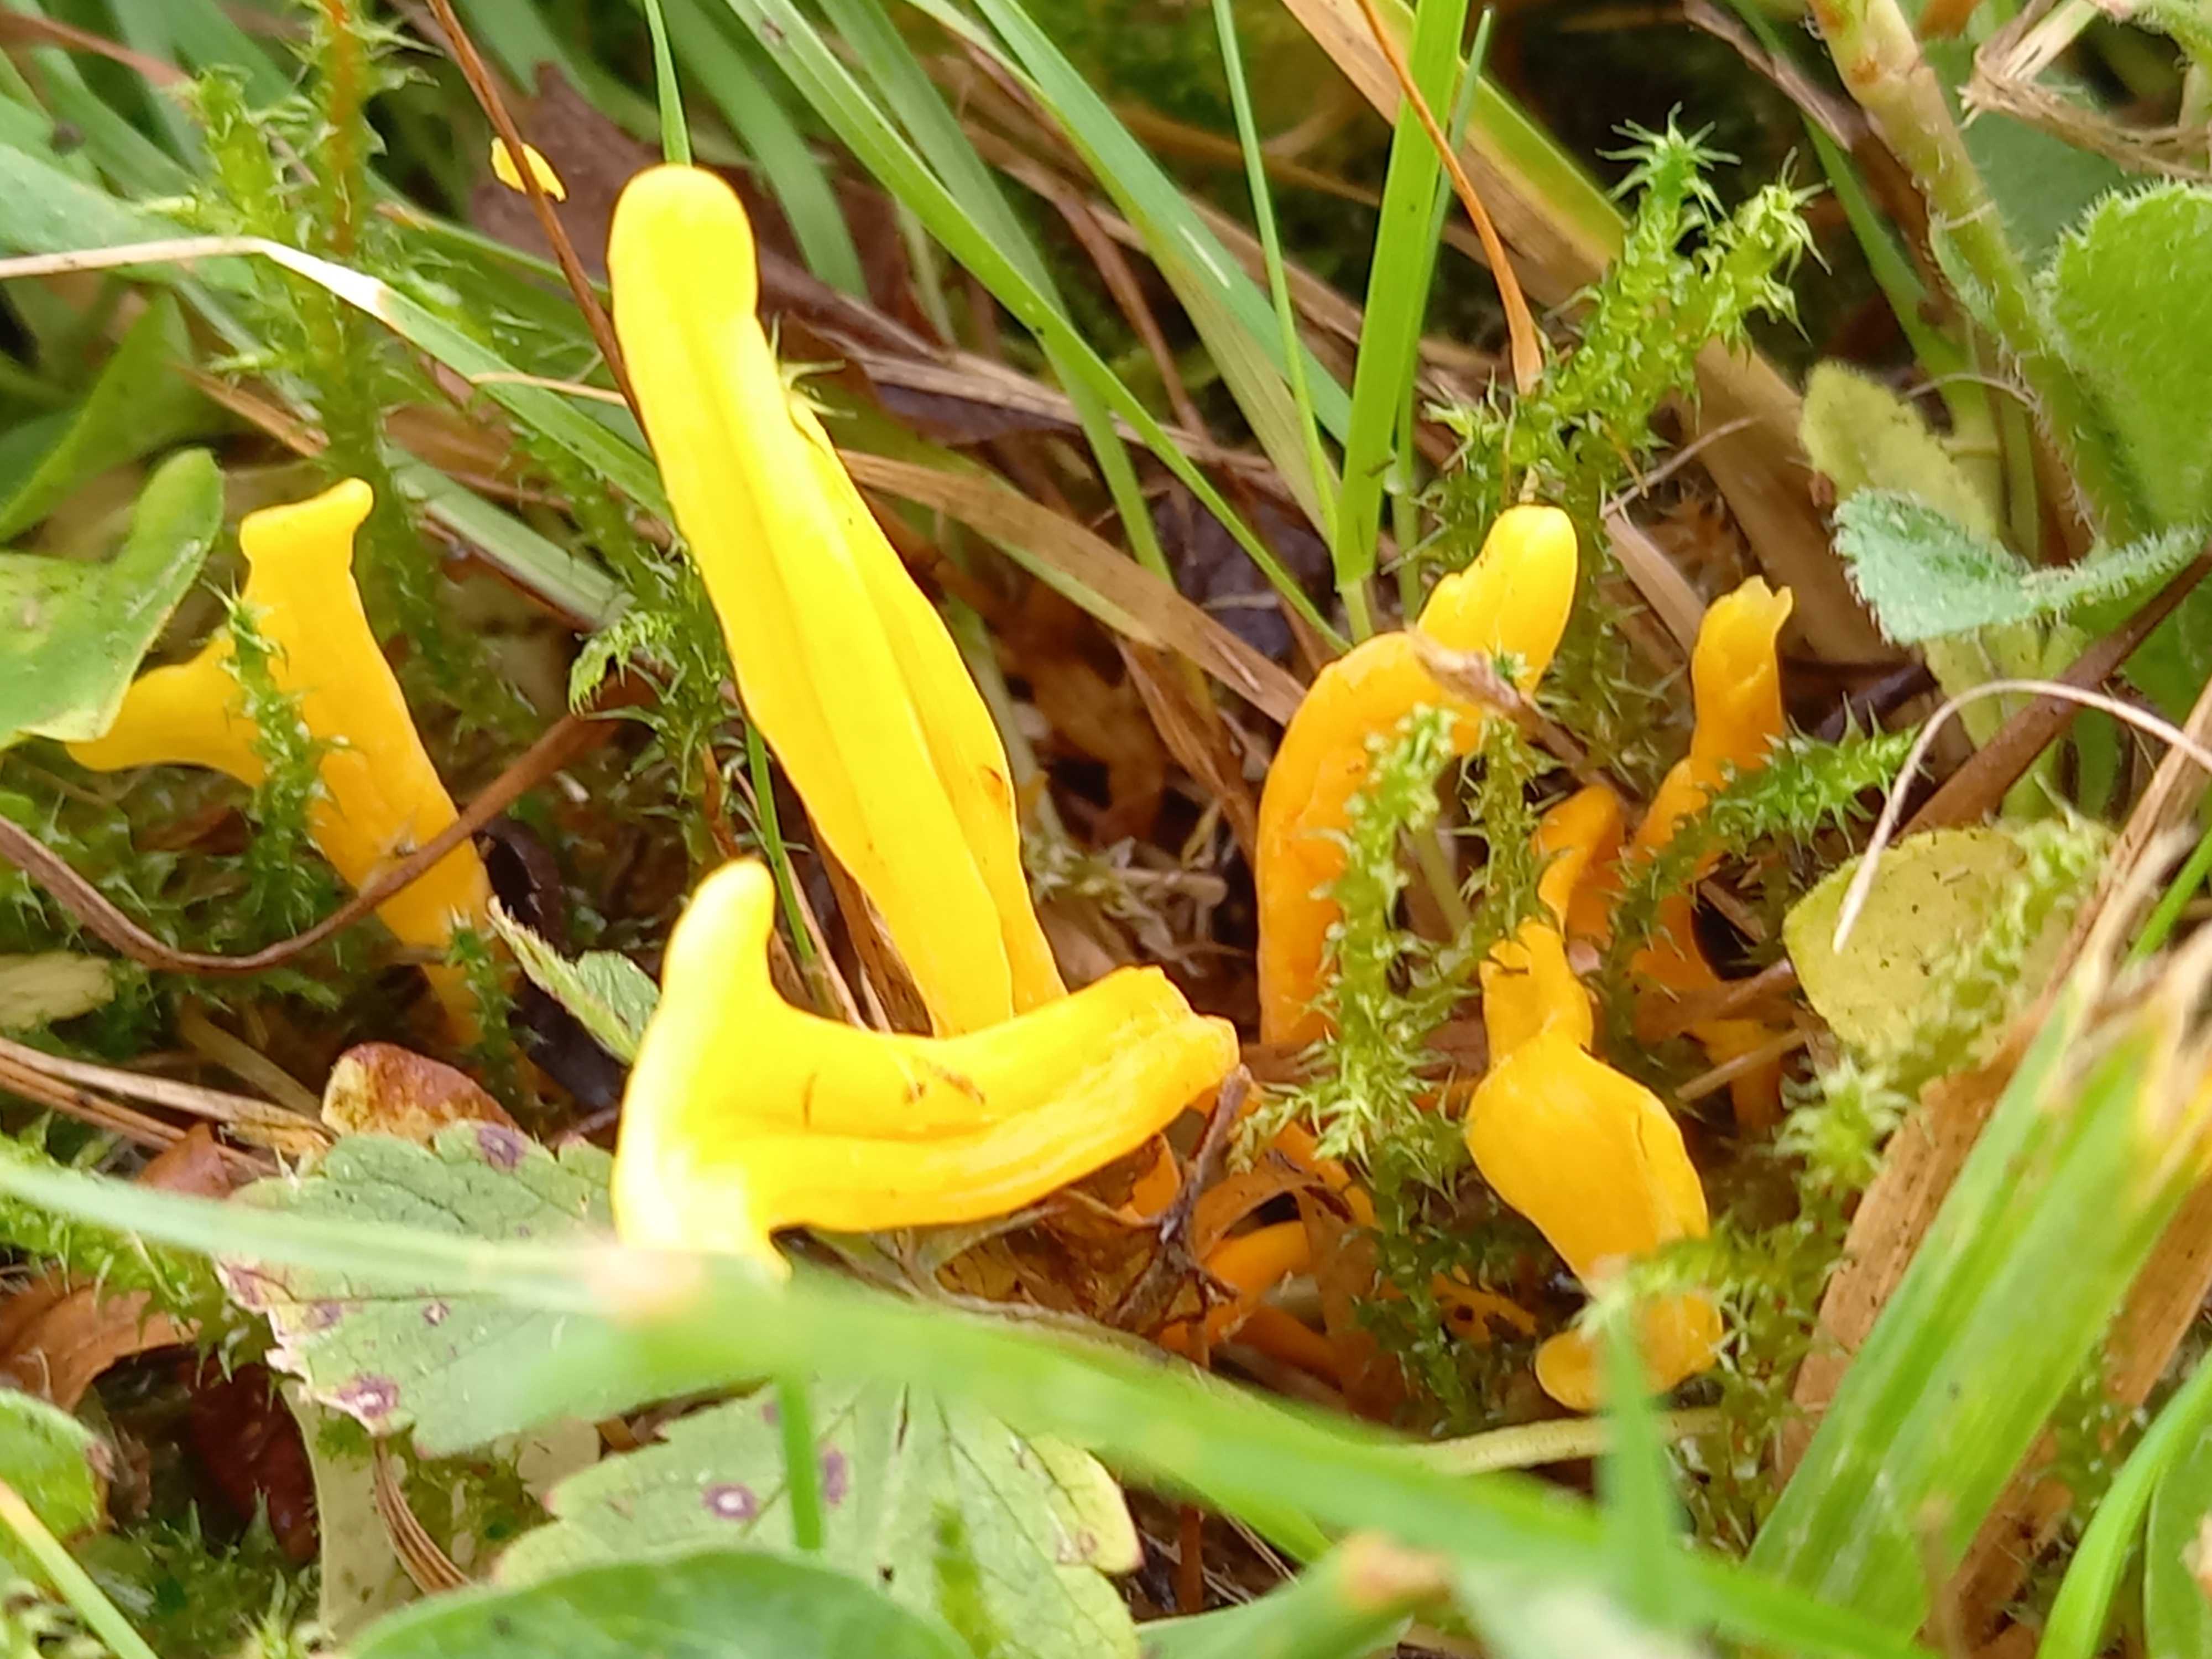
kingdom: Fungi
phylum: Basidiomycota
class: Agaricomycetes
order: Agaricales
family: Clavariaceae
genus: Clavulinopsis
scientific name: Clavulinopsis
